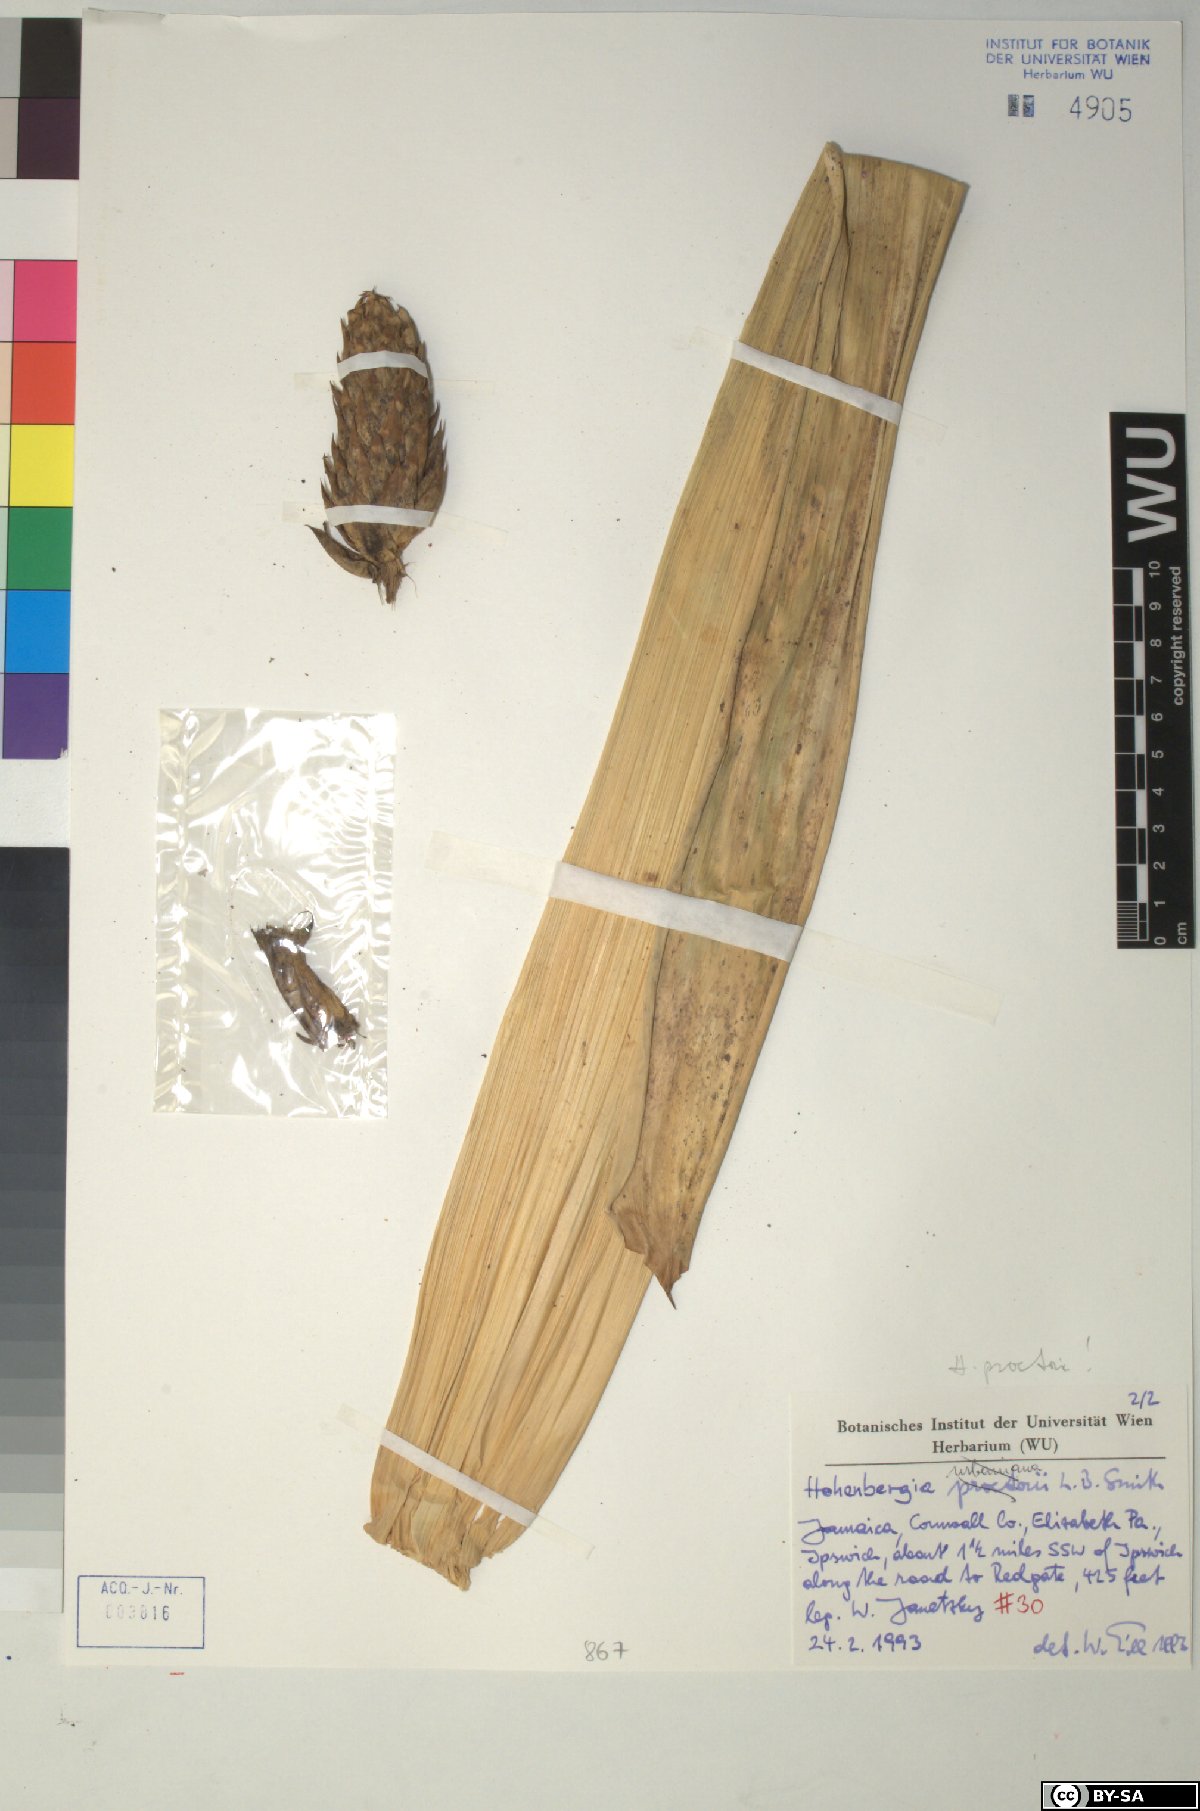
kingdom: Plantae
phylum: Tracheophyta
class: Liliopsida
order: Poales
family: Bromeliaceae
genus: Wittmackia
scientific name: Wittmackia urbaniana
